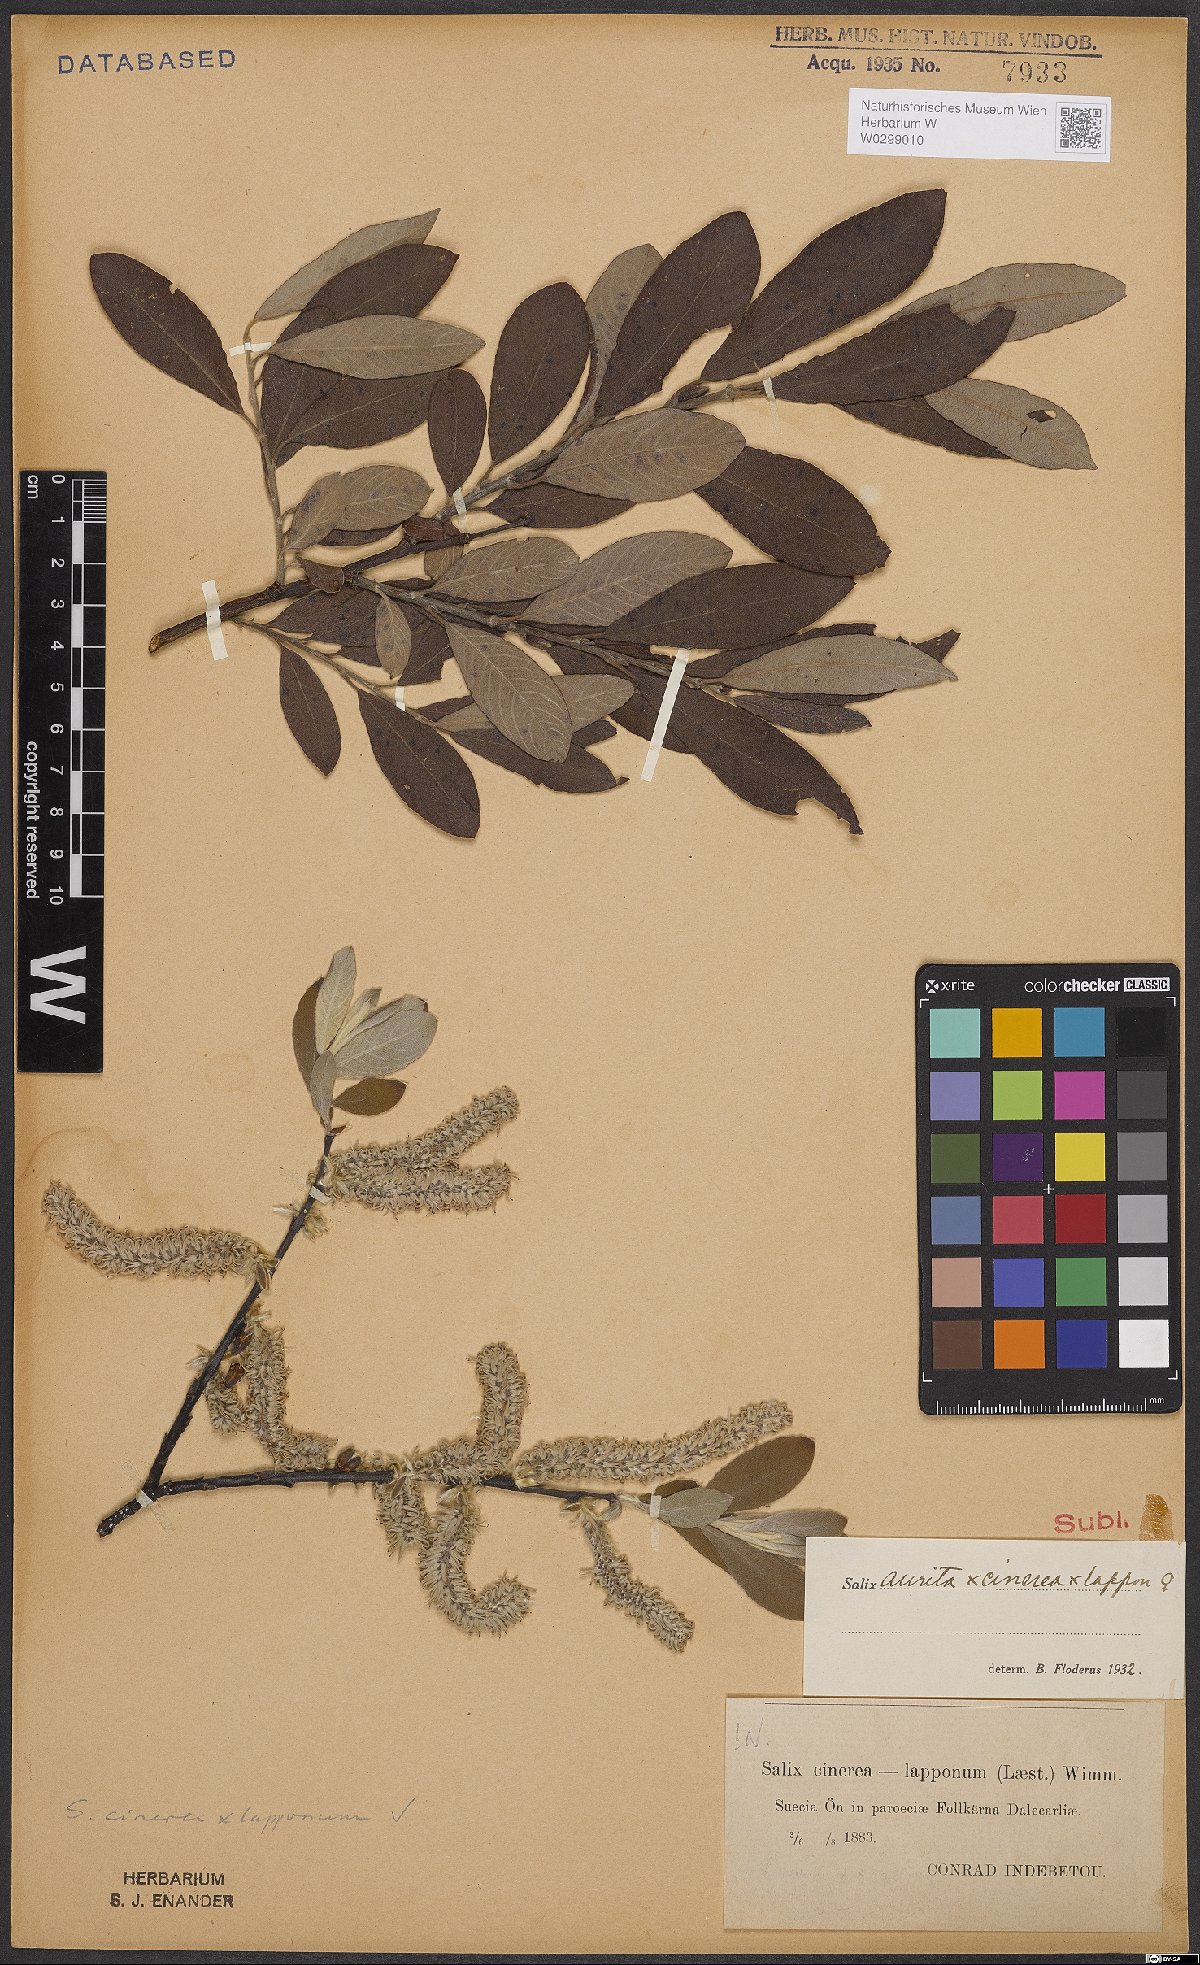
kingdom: Plantae
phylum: Tracheophyta
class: Magnoliopsida
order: Malpighiales
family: Salicaceae
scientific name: Salicaceae
